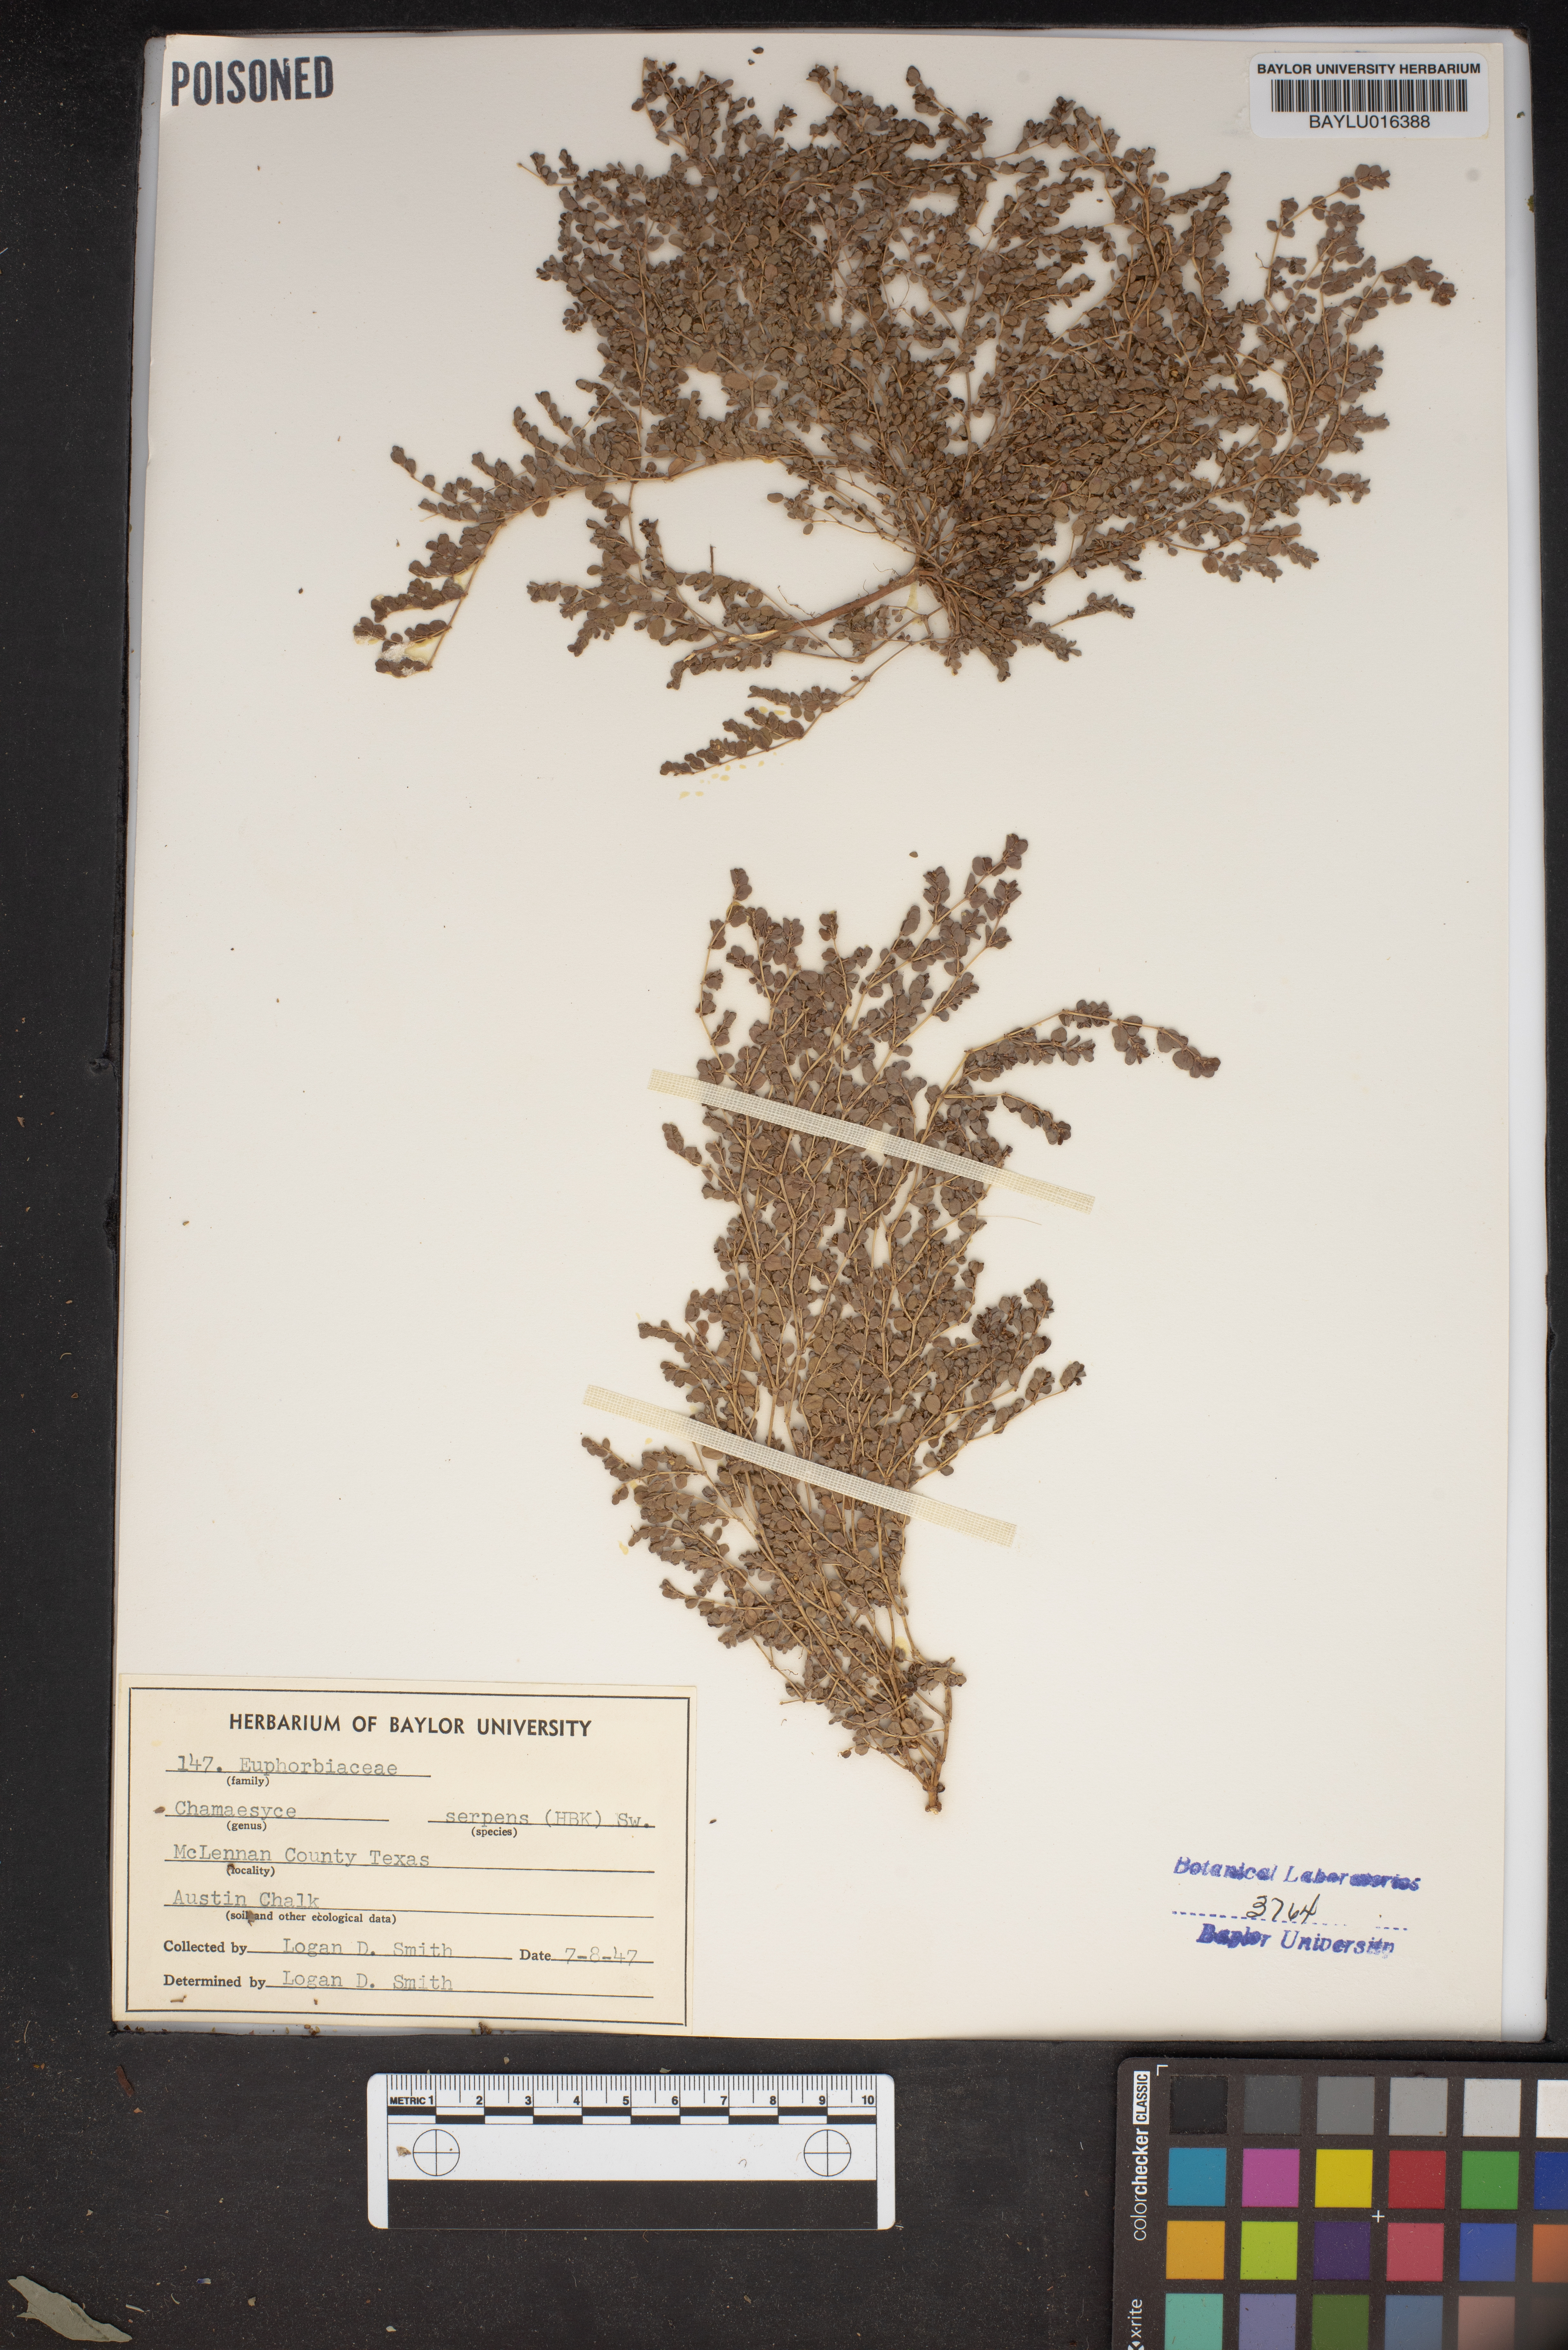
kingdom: Plantae
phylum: Tracheophyta
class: Magnoliopsida
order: Malpighiales
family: Euphorbiaceae
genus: Euphorbia
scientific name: Euphorbia serpens
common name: Matted sandmat
